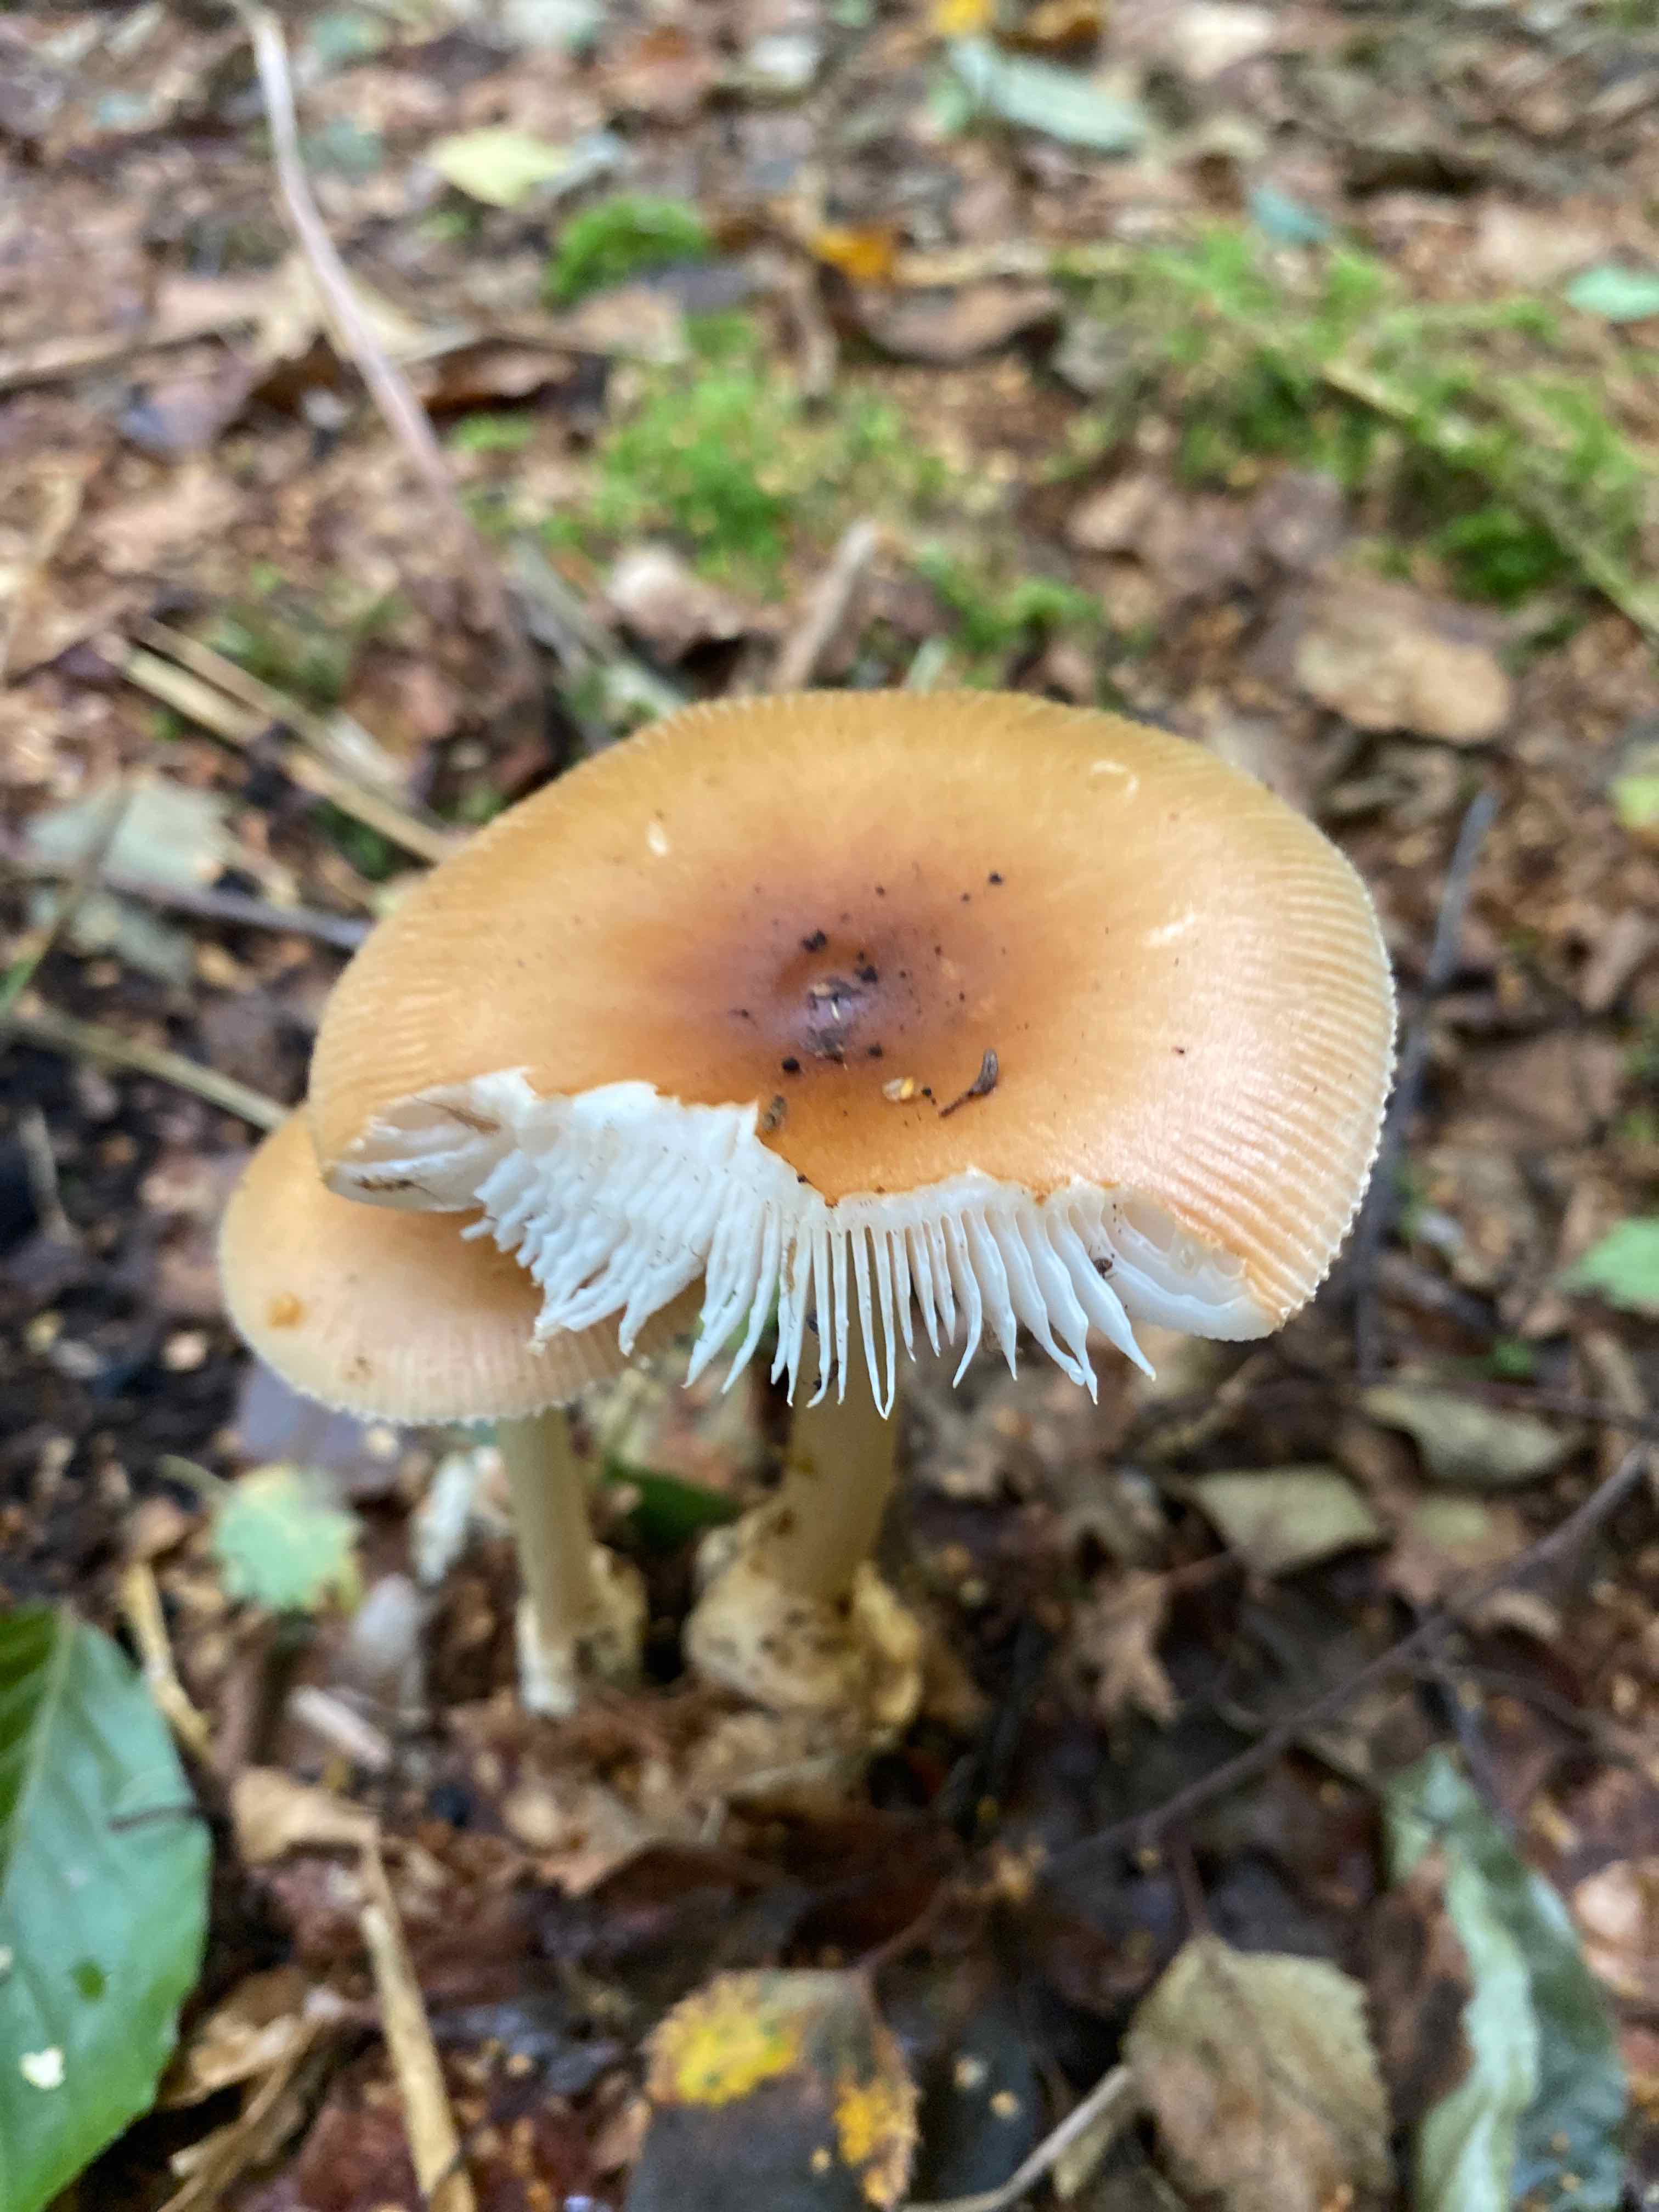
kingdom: Fungi
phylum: Basidiomycota
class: Agaricomycetes
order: Agaricales
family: Amanitaceae
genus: Amanita
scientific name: Amanita fulva
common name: brun kam-fluesvamp
